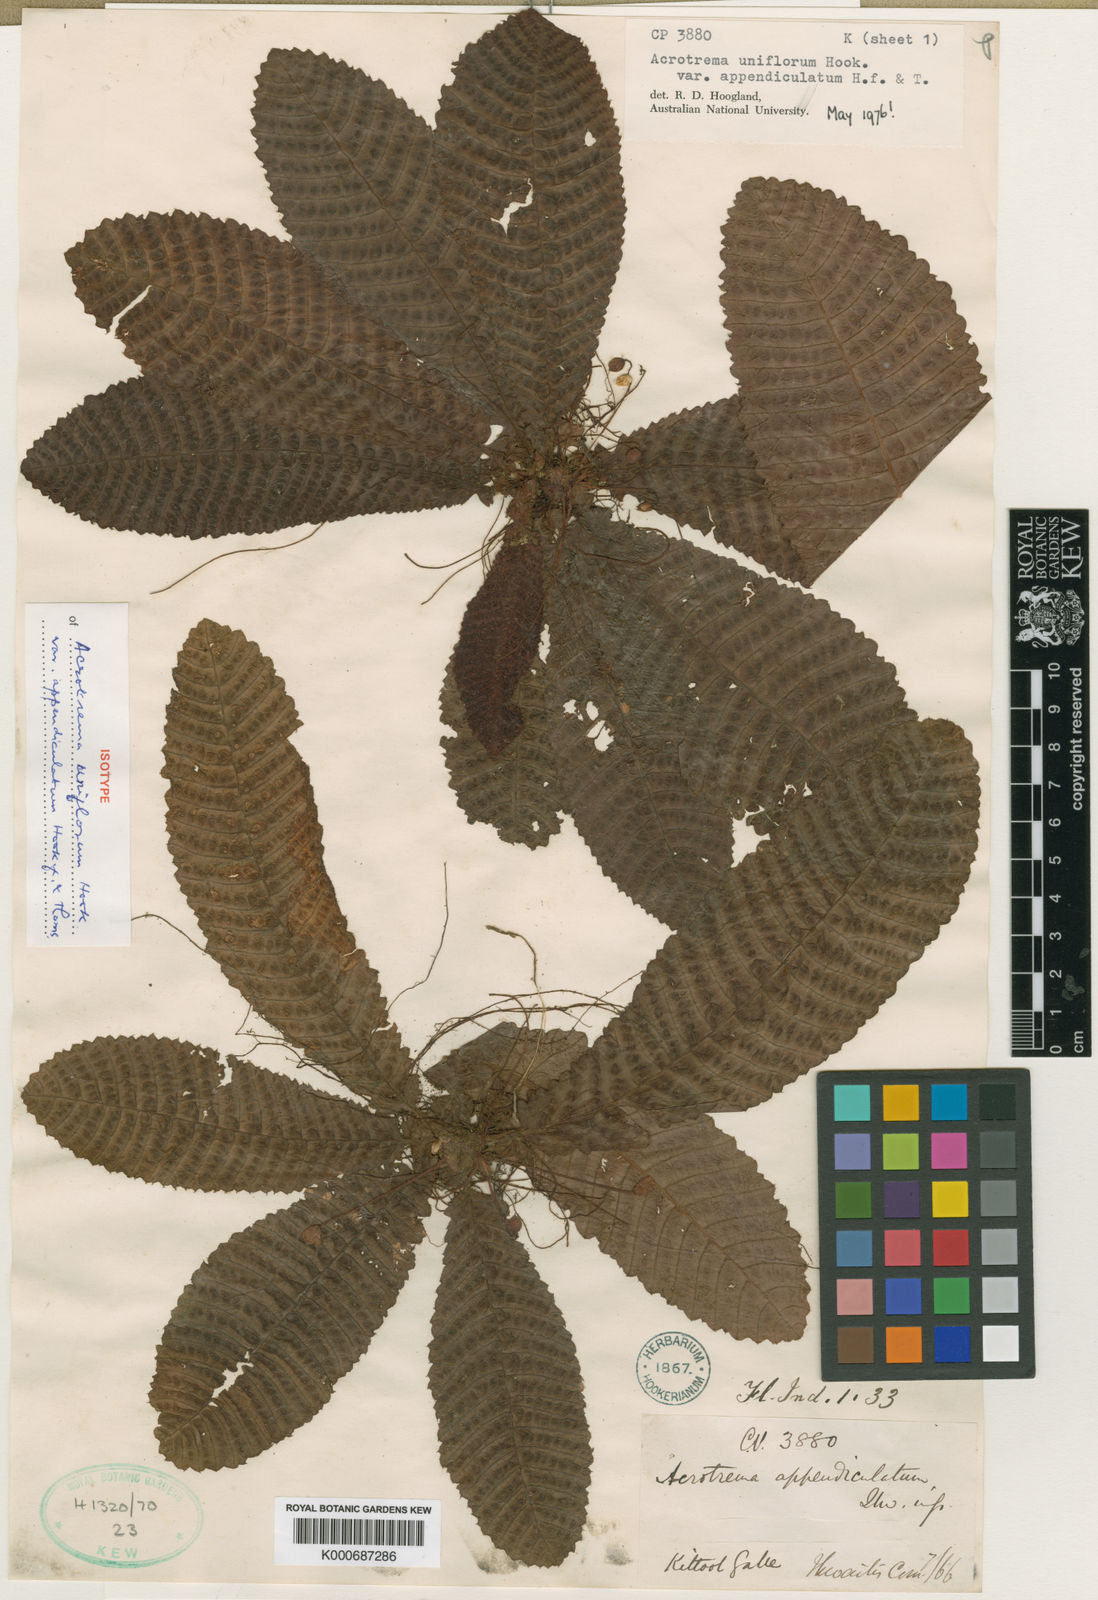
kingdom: Plantae
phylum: Tracheophyta
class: Magnoliopsida
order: Dilleniales
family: Dilleniaceae
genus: Acrotrema
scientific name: Acrotrema uniflorum
